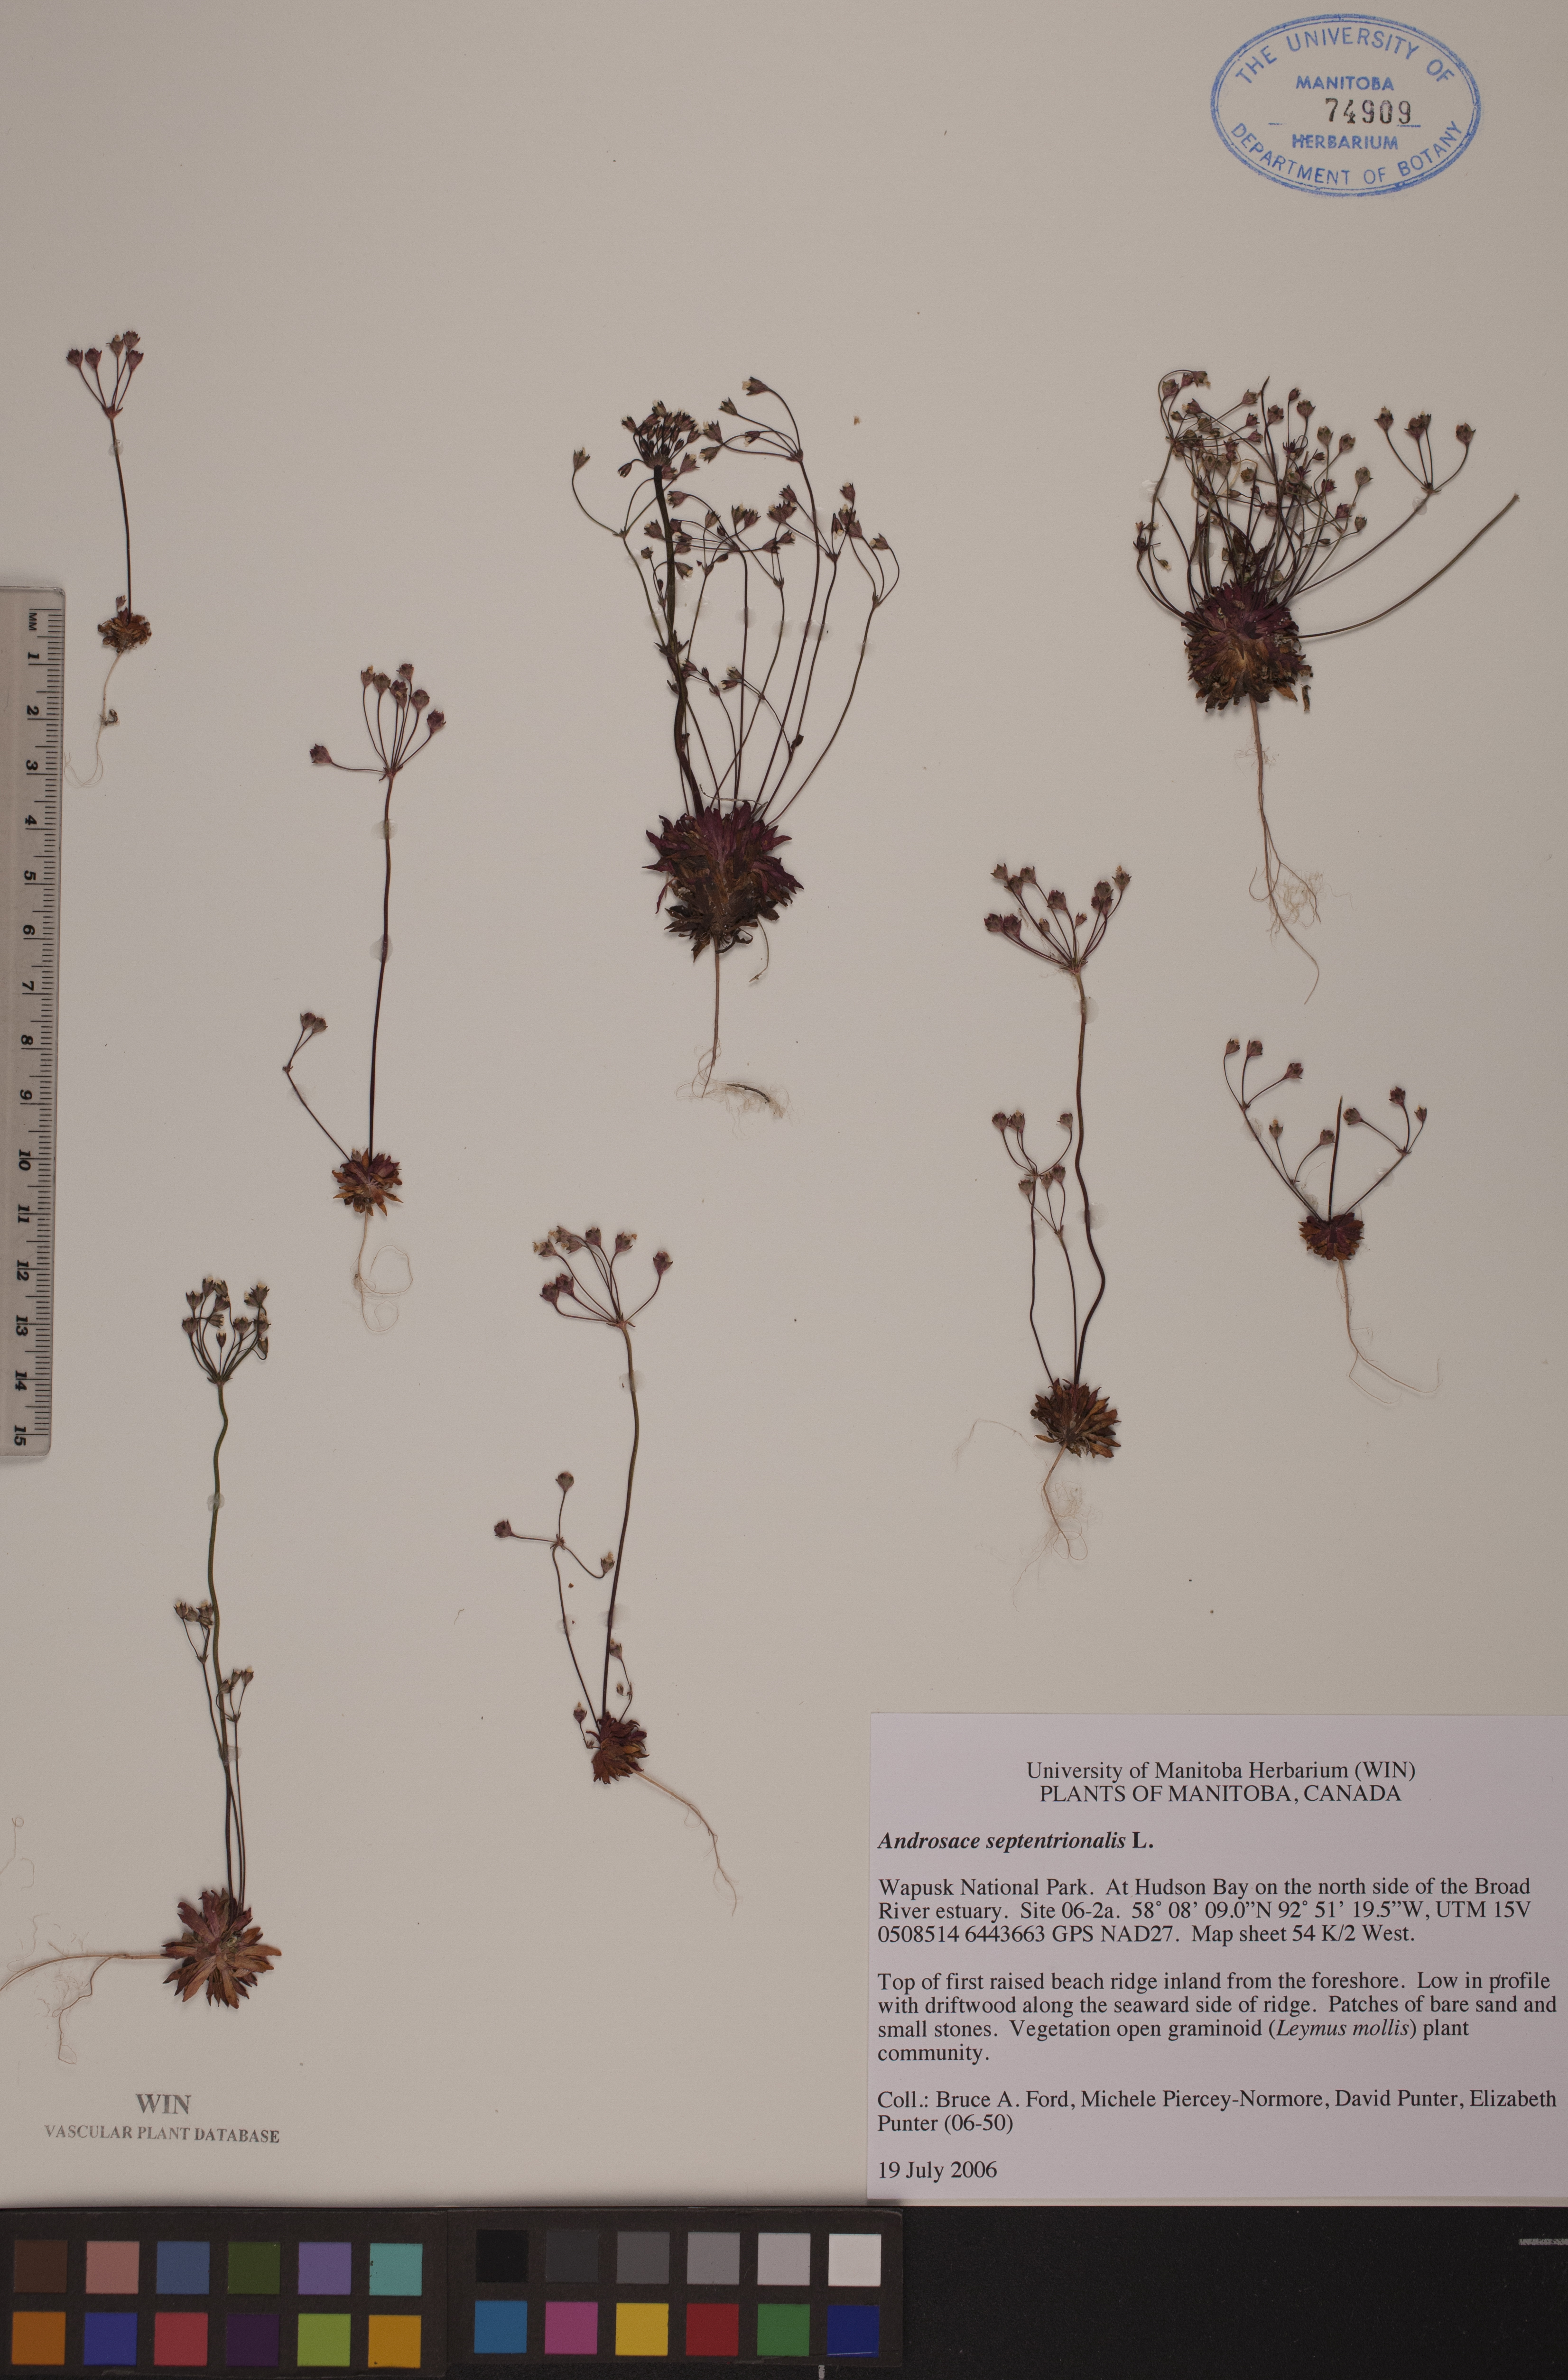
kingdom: Plantae
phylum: Tracheophyta
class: Magnoliopsida
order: Ericales
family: Primulaceae
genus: Androsace
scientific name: Androsace septentrionalis
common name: Hairy northern fairy-candelabra
